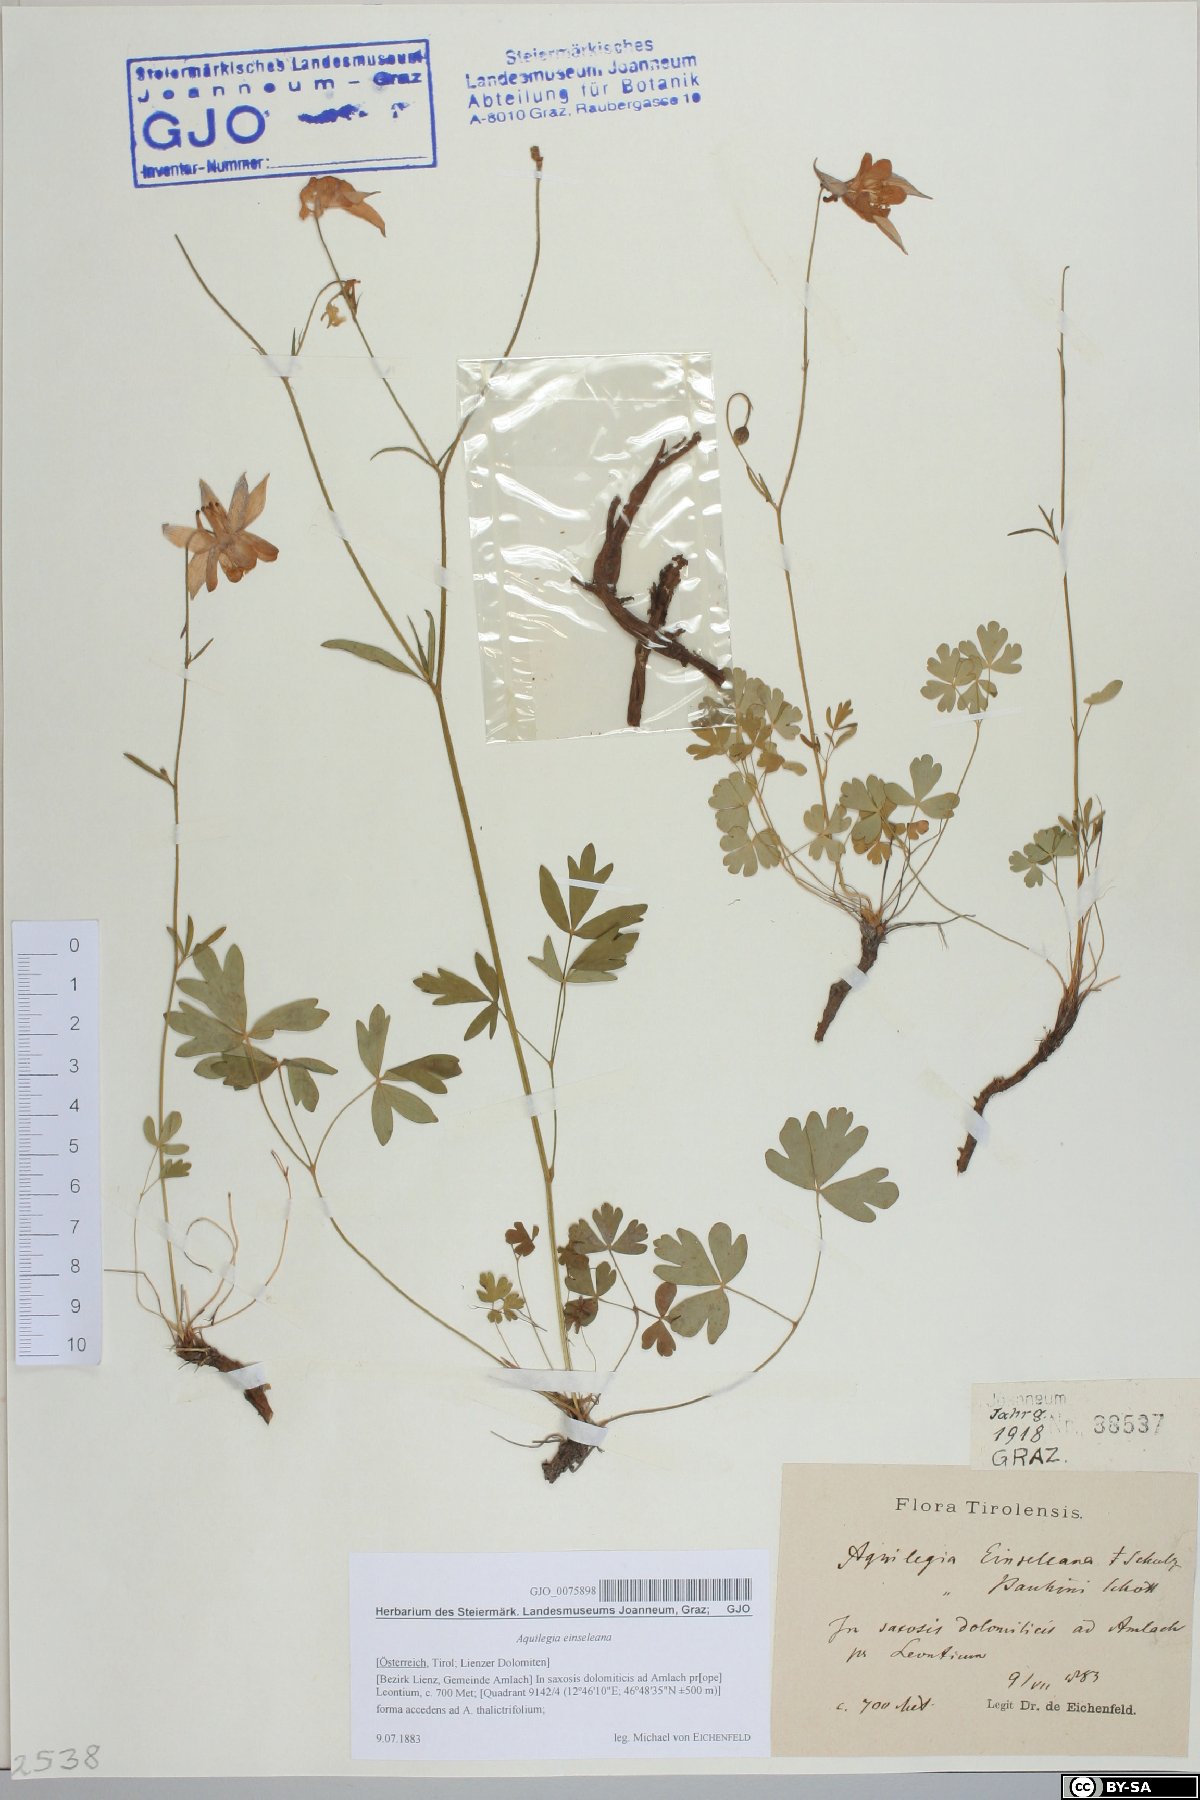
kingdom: Plantae
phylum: Tracheophyta
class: Magnoliopsida
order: Ranunculales
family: Ranunculaceae
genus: Aquilegia
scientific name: Aquilegia einseleana
